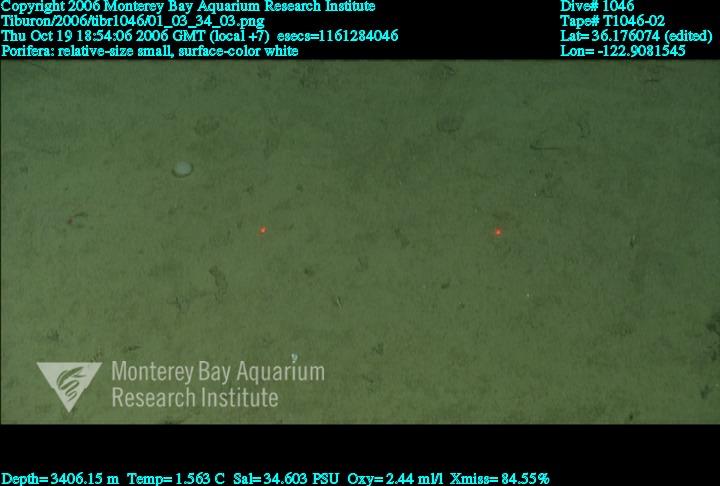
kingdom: Animalia
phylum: Porifera
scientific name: Porifera
